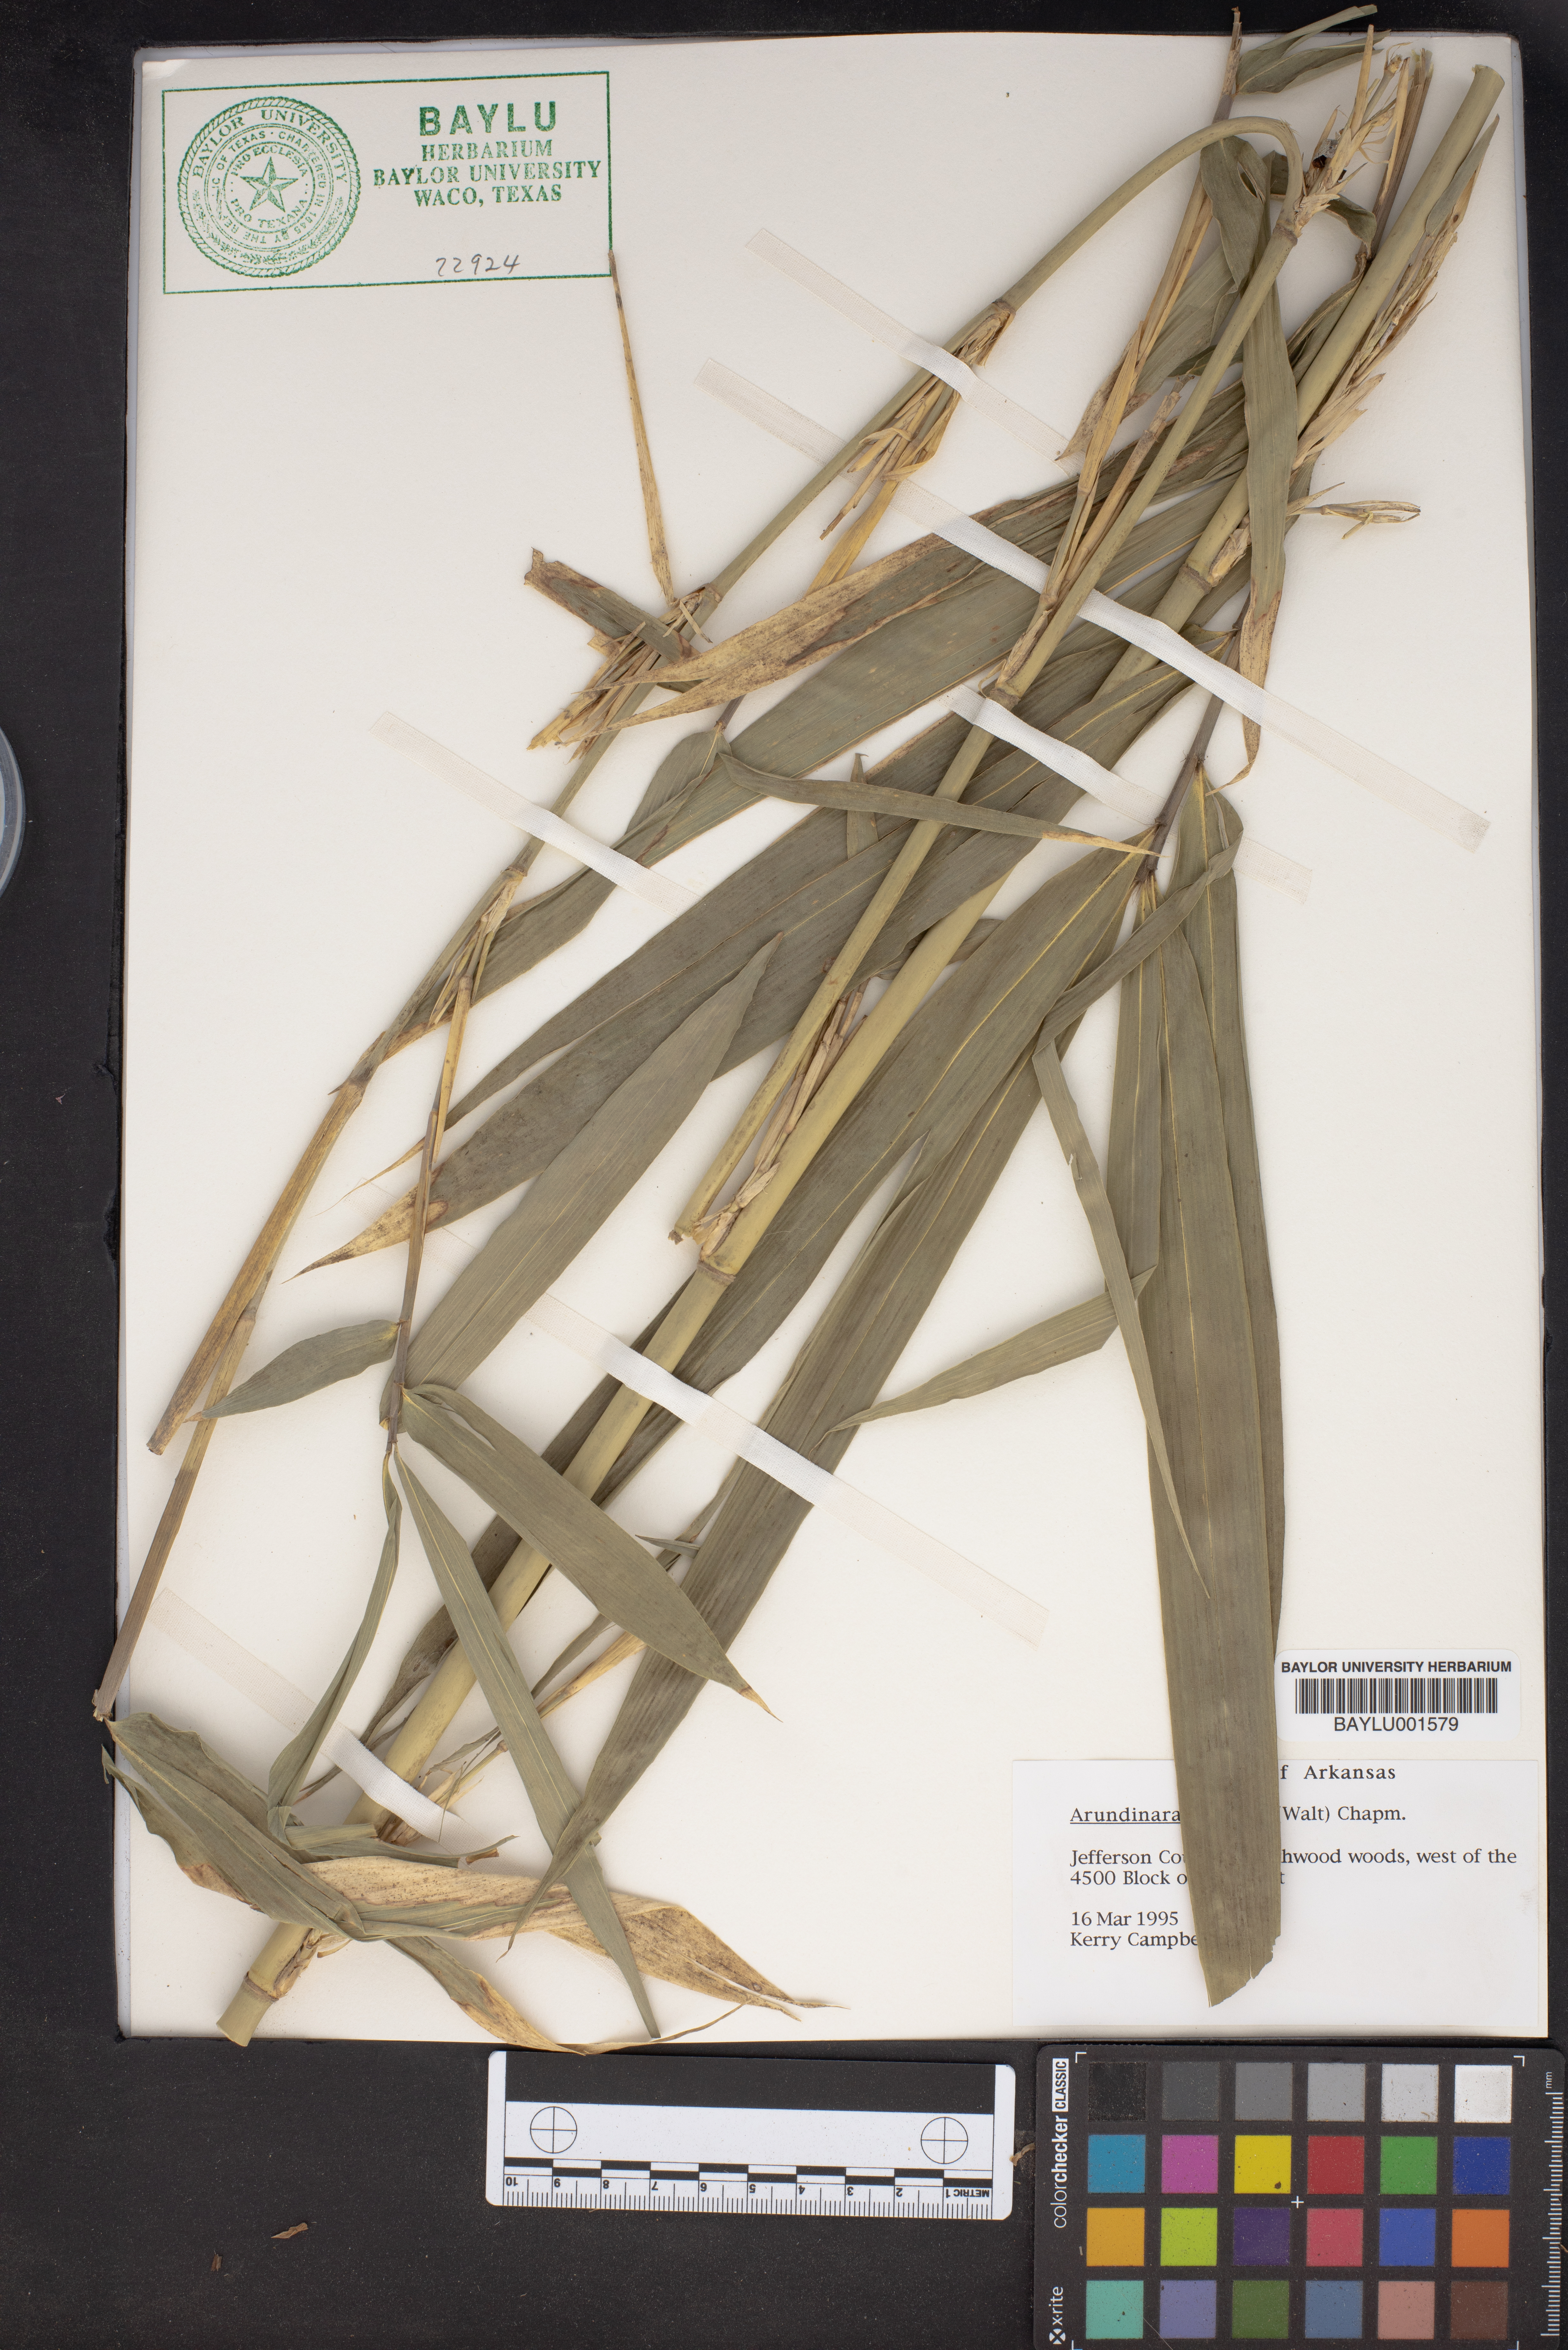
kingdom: Plantae
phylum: Tracheophyta
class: Liliopsida
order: Poales
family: Poaceae
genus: Arundinaria
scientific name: Arundinaria
